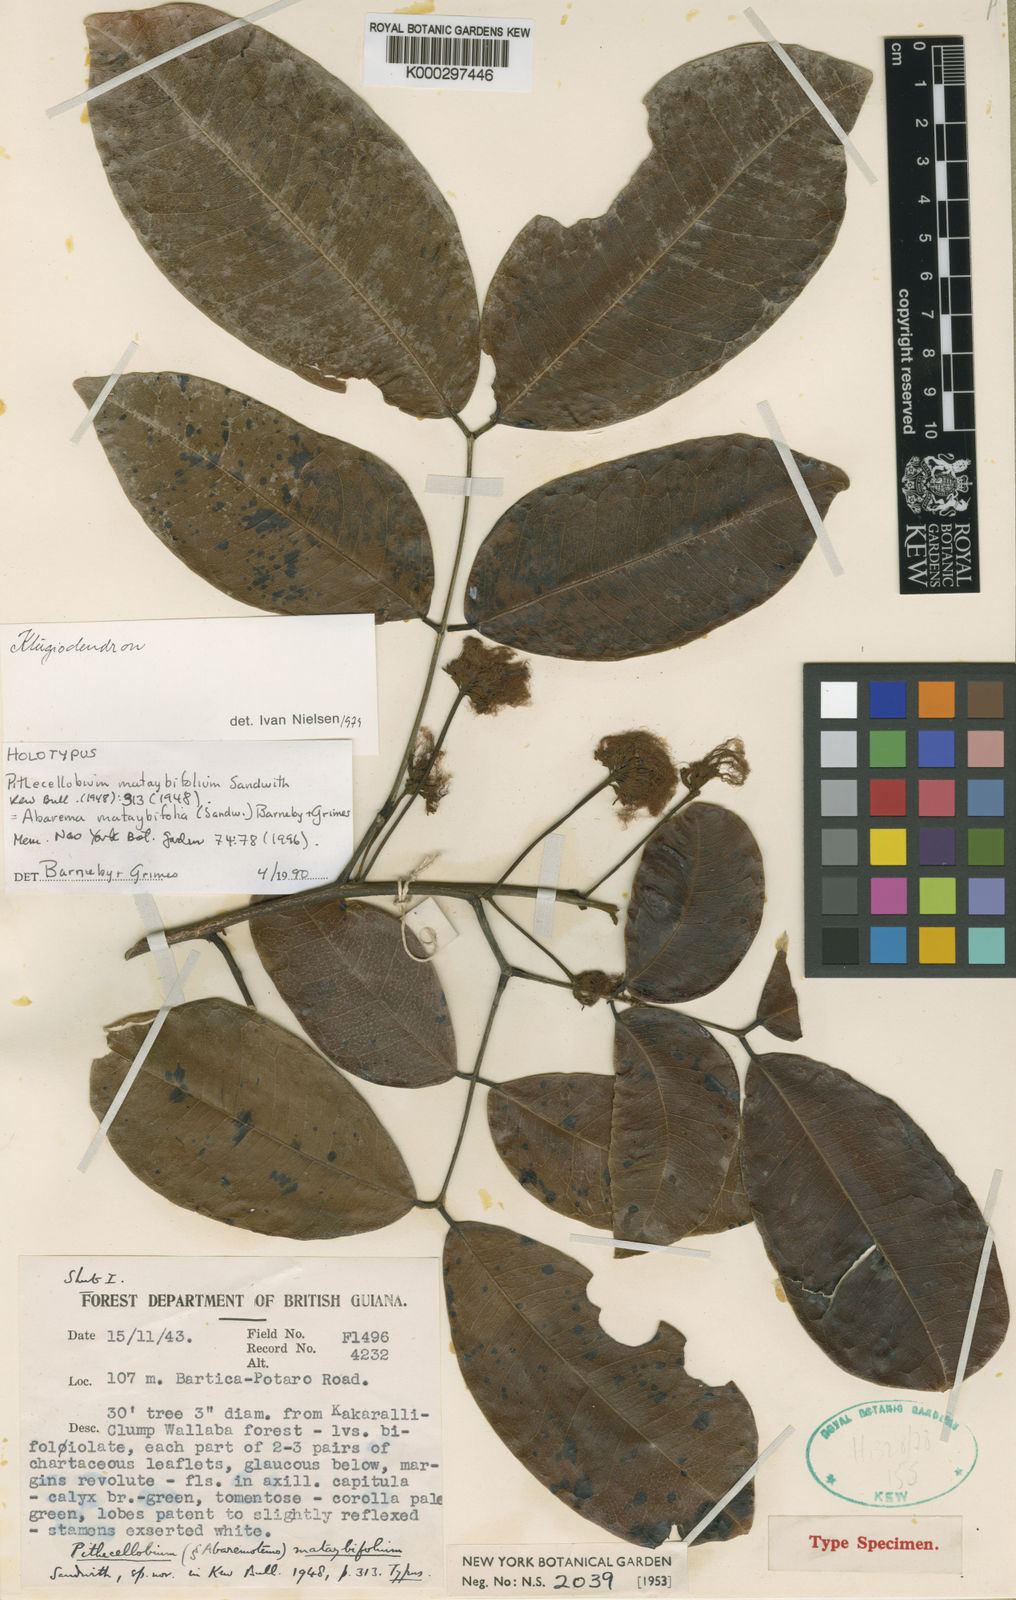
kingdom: Plantae
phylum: Tracheophyta
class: Magnoliopsida
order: Fabales
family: Fabaceae
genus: Jupunba
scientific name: Jupunba mataybifolia
